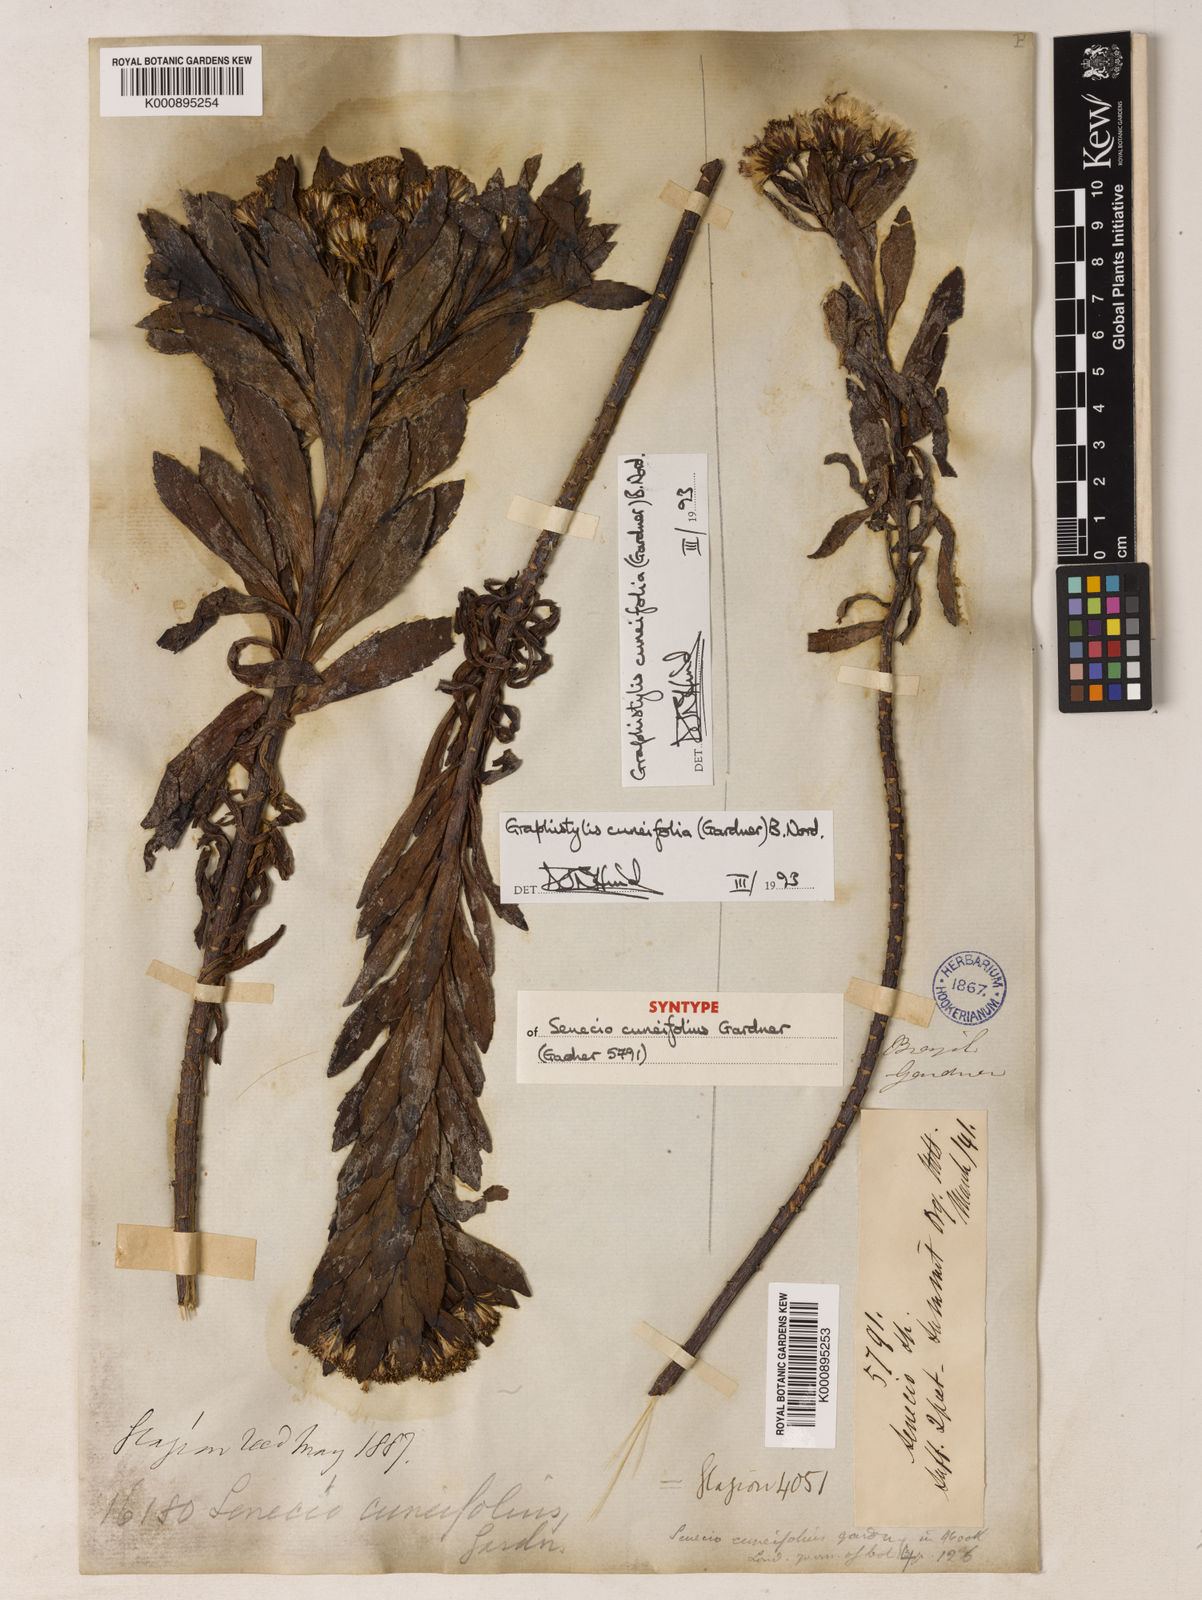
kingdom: Plantae
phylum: Tracheophyta
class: Magnoliopsida
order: Asterales
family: Asteraceae
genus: Graphistylis
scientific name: Graphistylis cuneifolia
